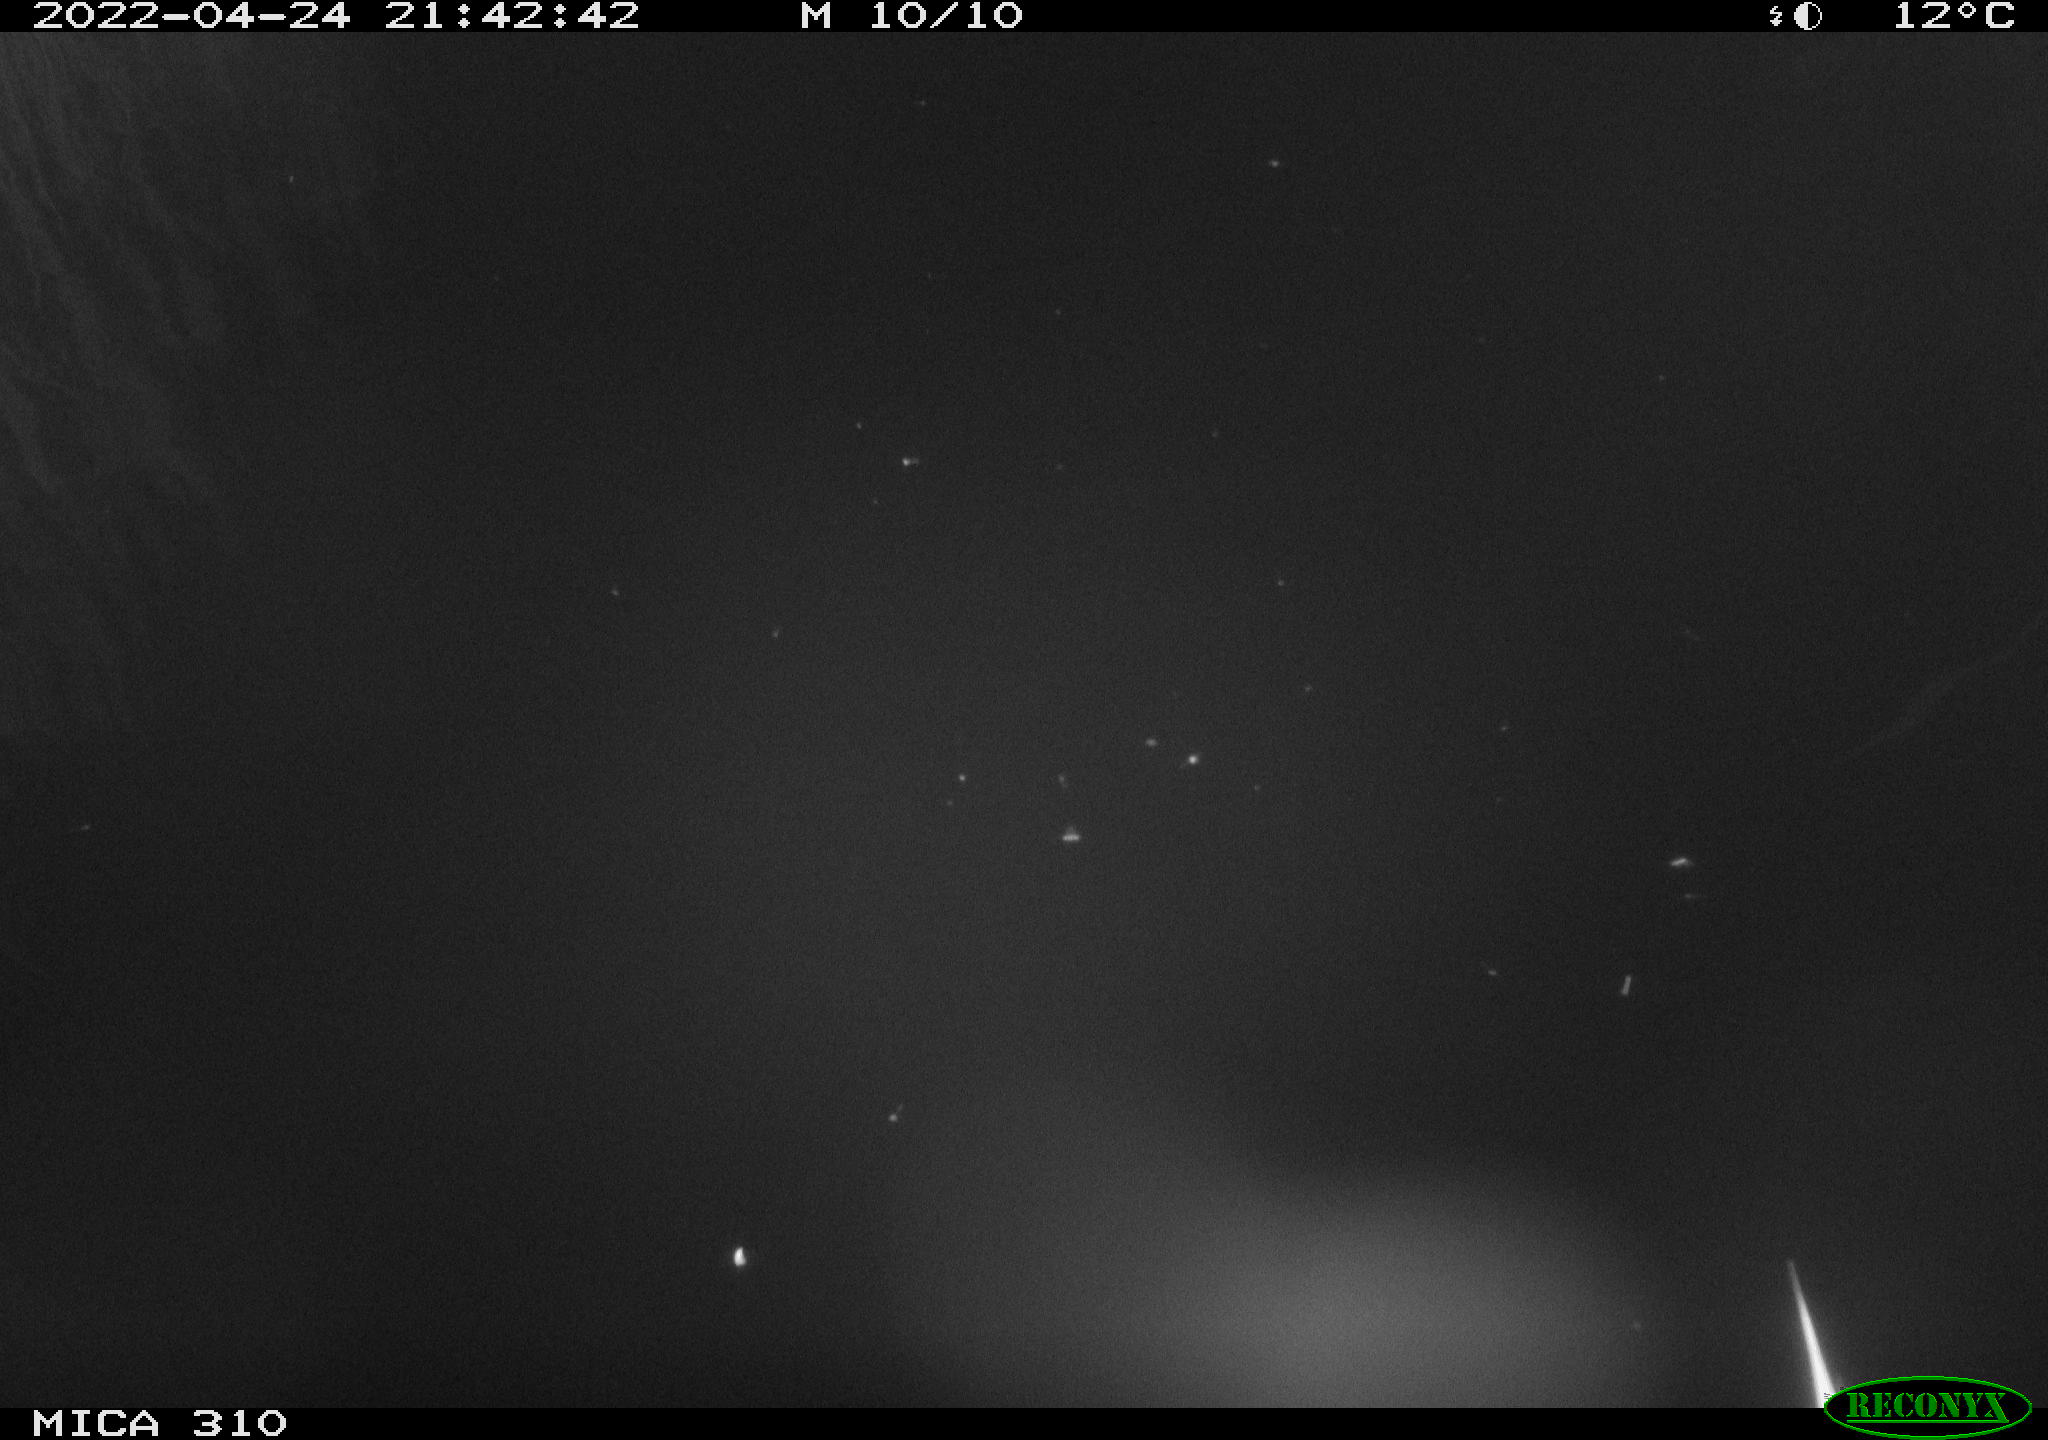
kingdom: Animalia
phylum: Chordata
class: Aves
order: Anseriformes
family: Anatidae
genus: Anas
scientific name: Anas platyrhynchos
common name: Mallard
